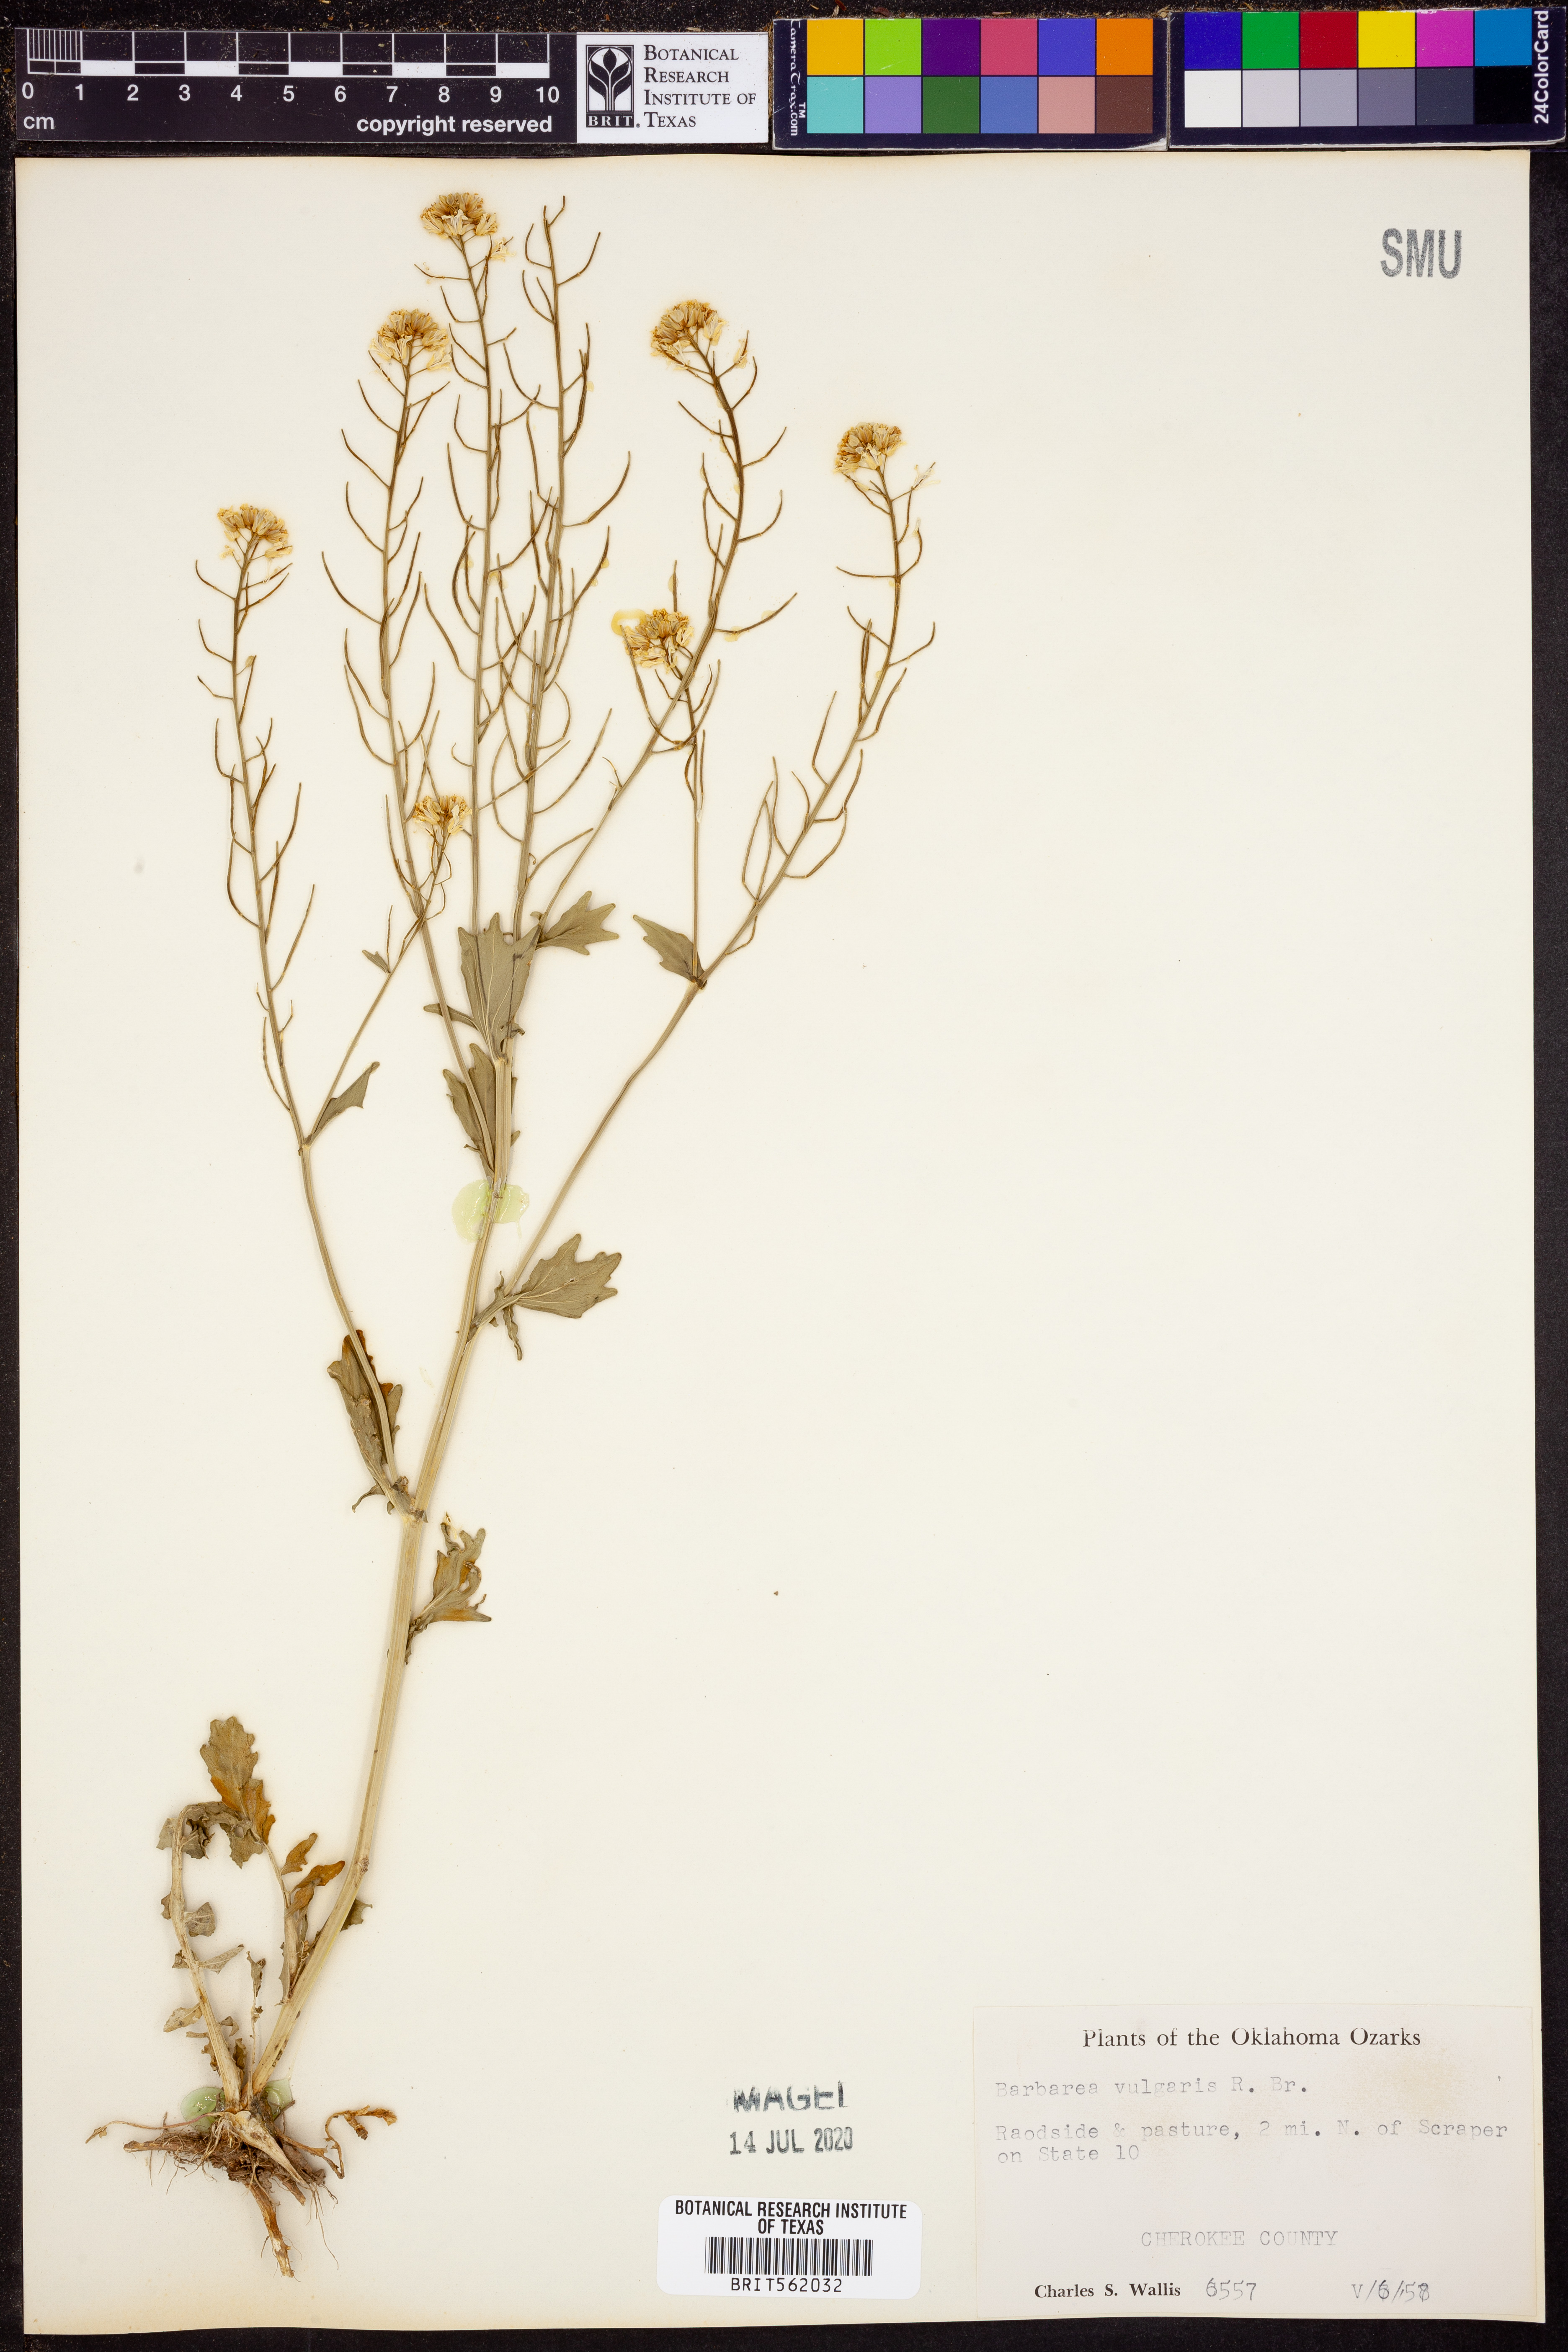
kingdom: Plantae
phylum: Tracheophyta
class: Magnoliopsida
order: Brassicales
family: Brassicaceae
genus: Barbarea
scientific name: Barbarea vulgaris
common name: Cressy-greens
